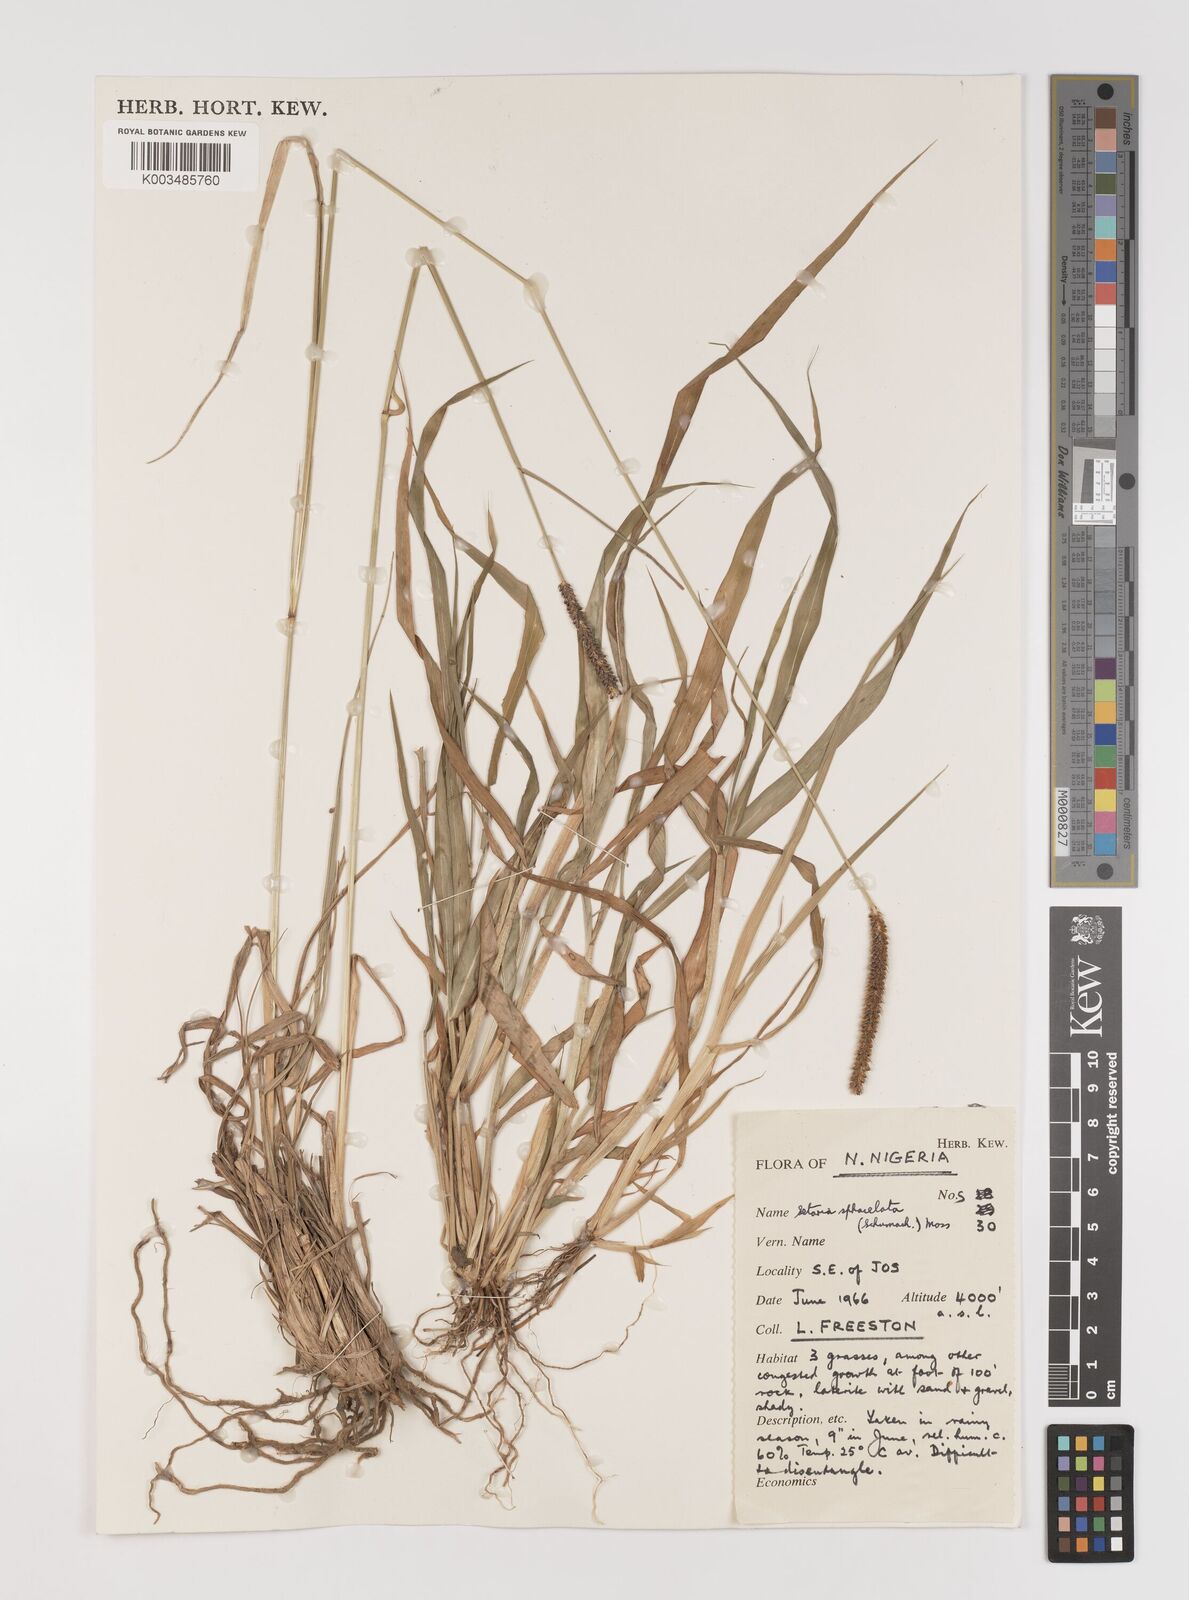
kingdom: Plantae
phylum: Tracheophyta
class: Liliopsida
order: Poales
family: Poaceae
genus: Setaria
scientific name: Setaria sphacelata
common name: African bristlegrass
